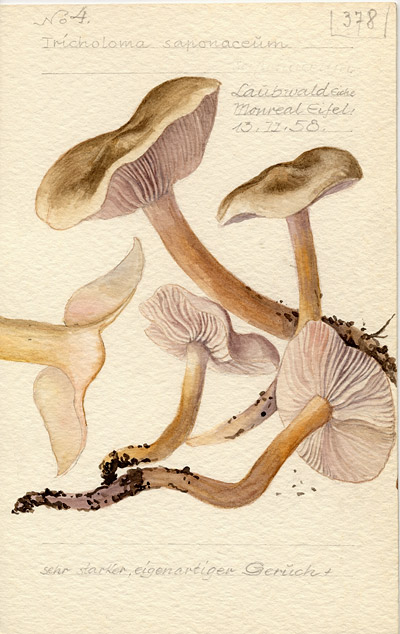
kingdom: Fungi
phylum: Basidiomycota
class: Agaricomycetes
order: Agaricales
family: Tricholomataceae
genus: Tricholoma
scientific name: Tricholoma saponaceum
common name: Soapy trich
